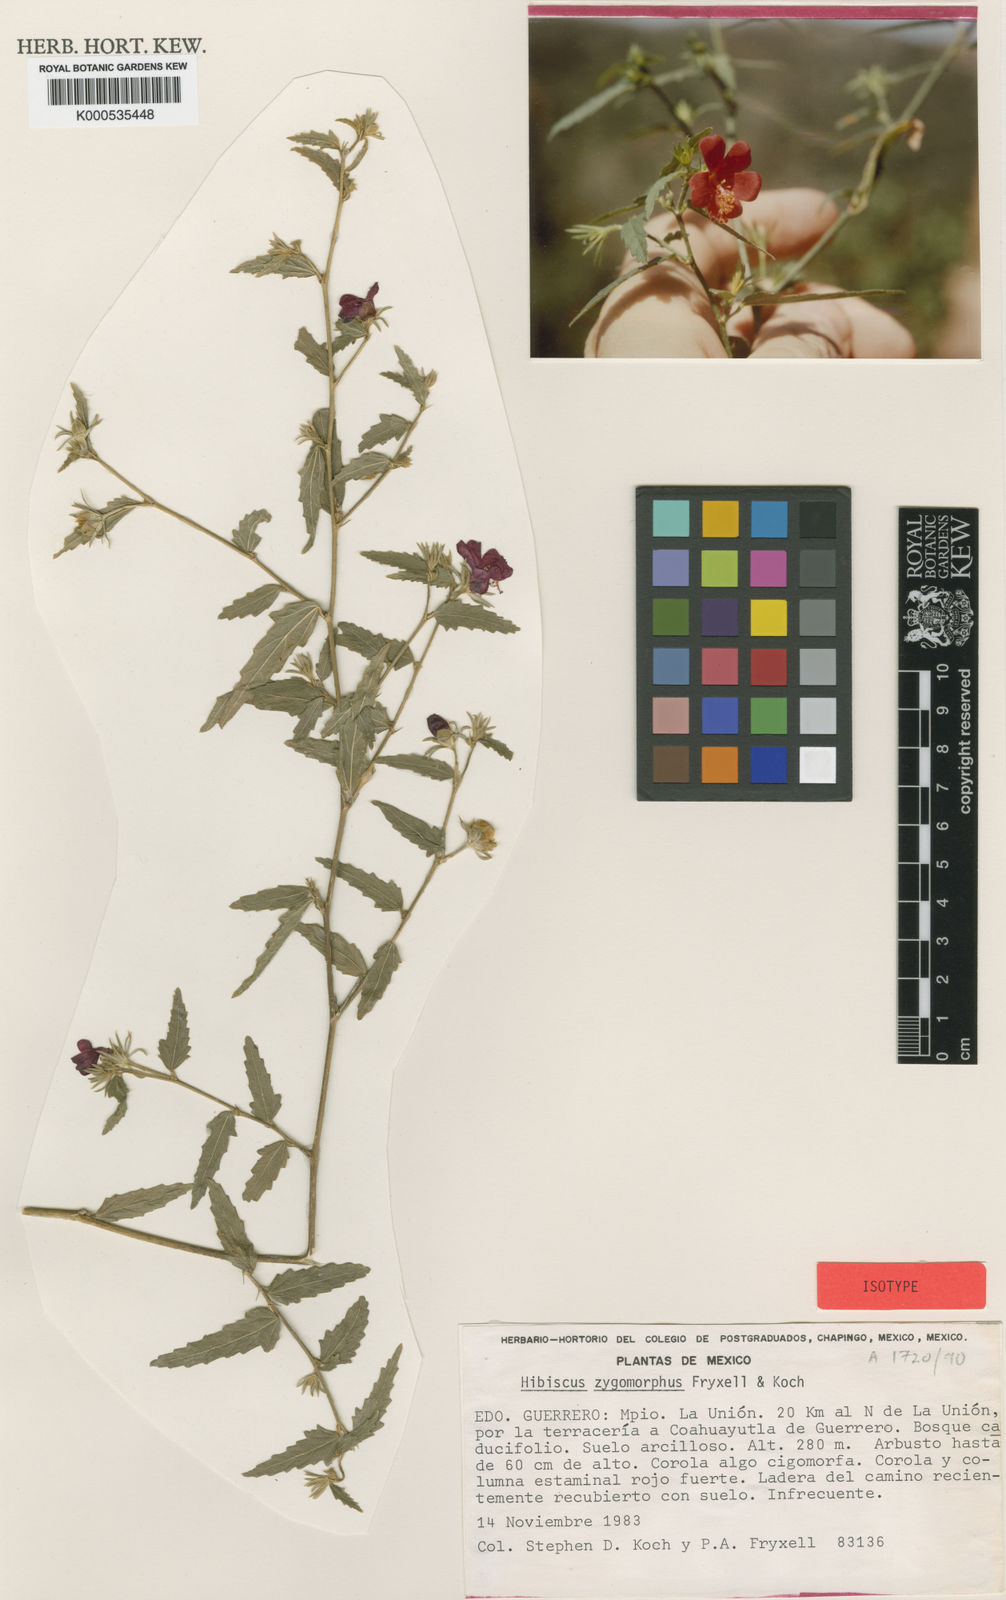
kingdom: Plantae
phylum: Tracheophyta
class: Magnoliopsida
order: Malvales
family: Malvaceae
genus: Hibiscus
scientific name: Hibiscus zygomorphus
